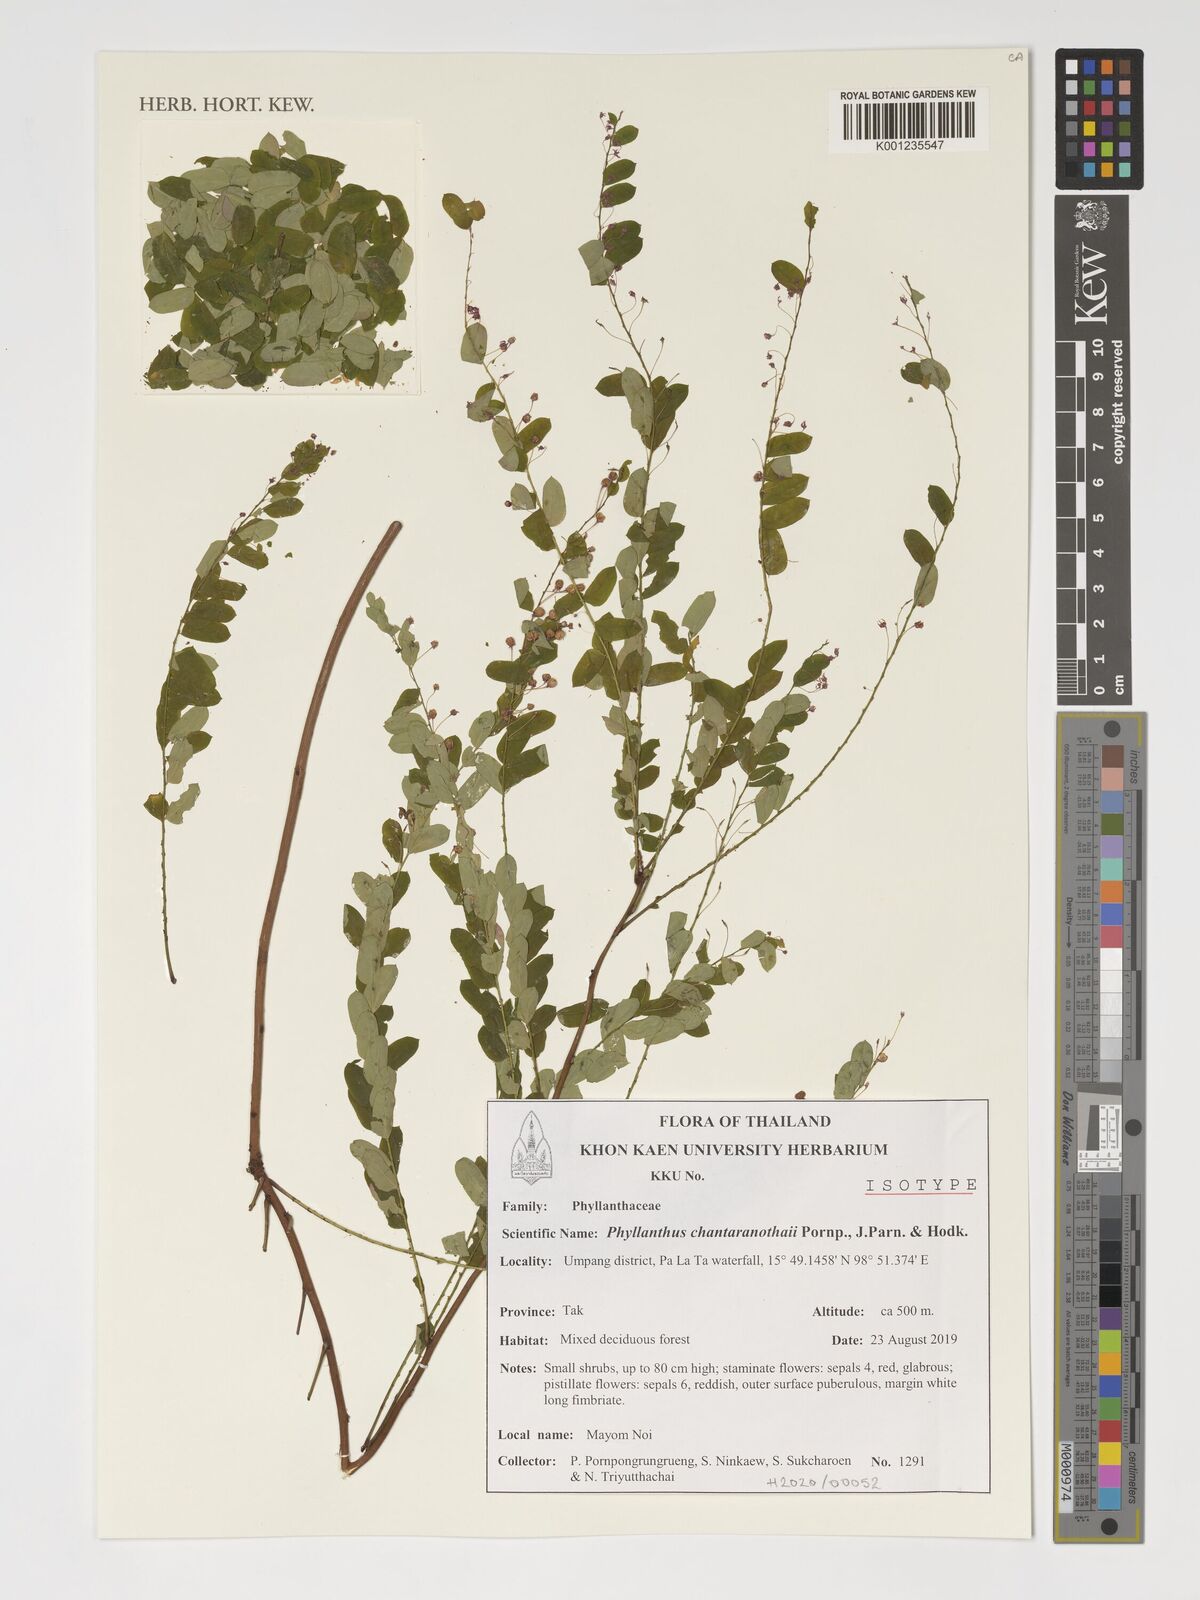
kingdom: Plantae
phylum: Tracheophyta
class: Magnoliopsida
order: Malpighiales
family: Phyllanthaceae
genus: Phyllanthus
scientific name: Phyllanthus chantaranothaii
